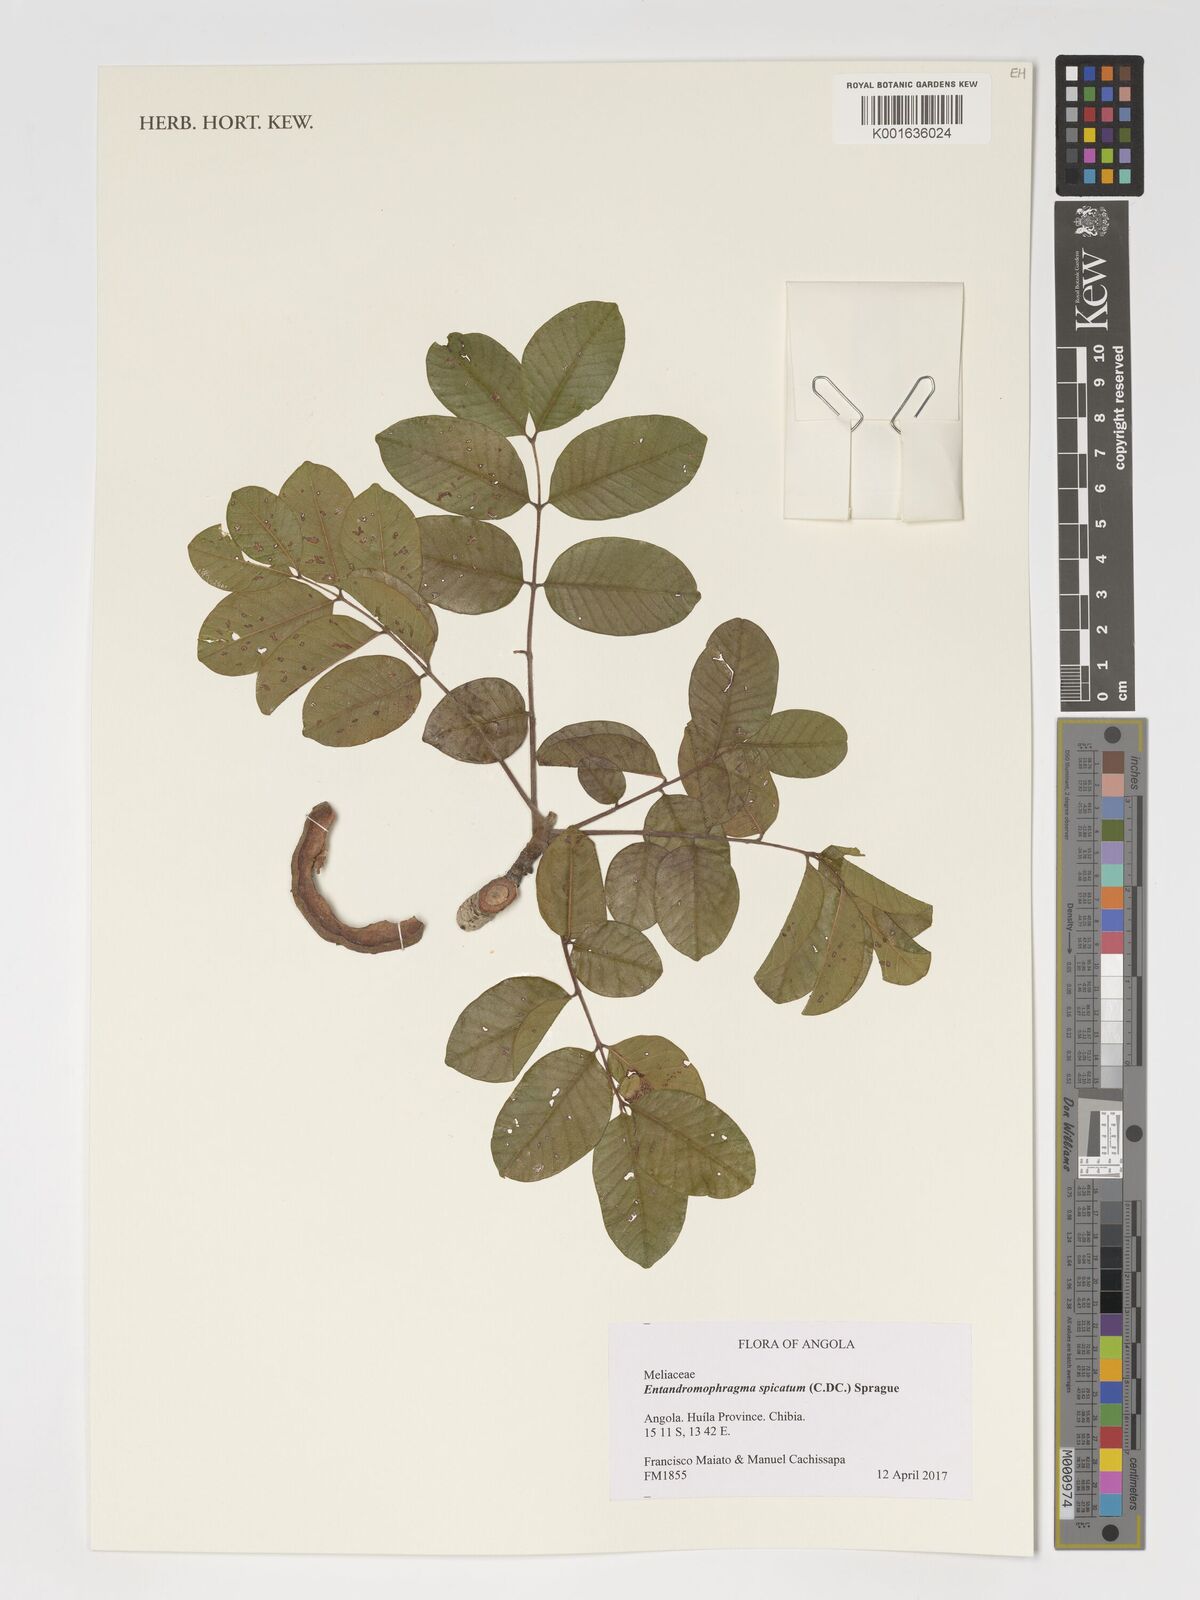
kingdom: Plantae
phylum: Tracheophyta
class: Magnoliopsida
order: Sapindales
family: Meliaceae
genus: Entandrophragma
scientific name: Entandrophragma spicatum
